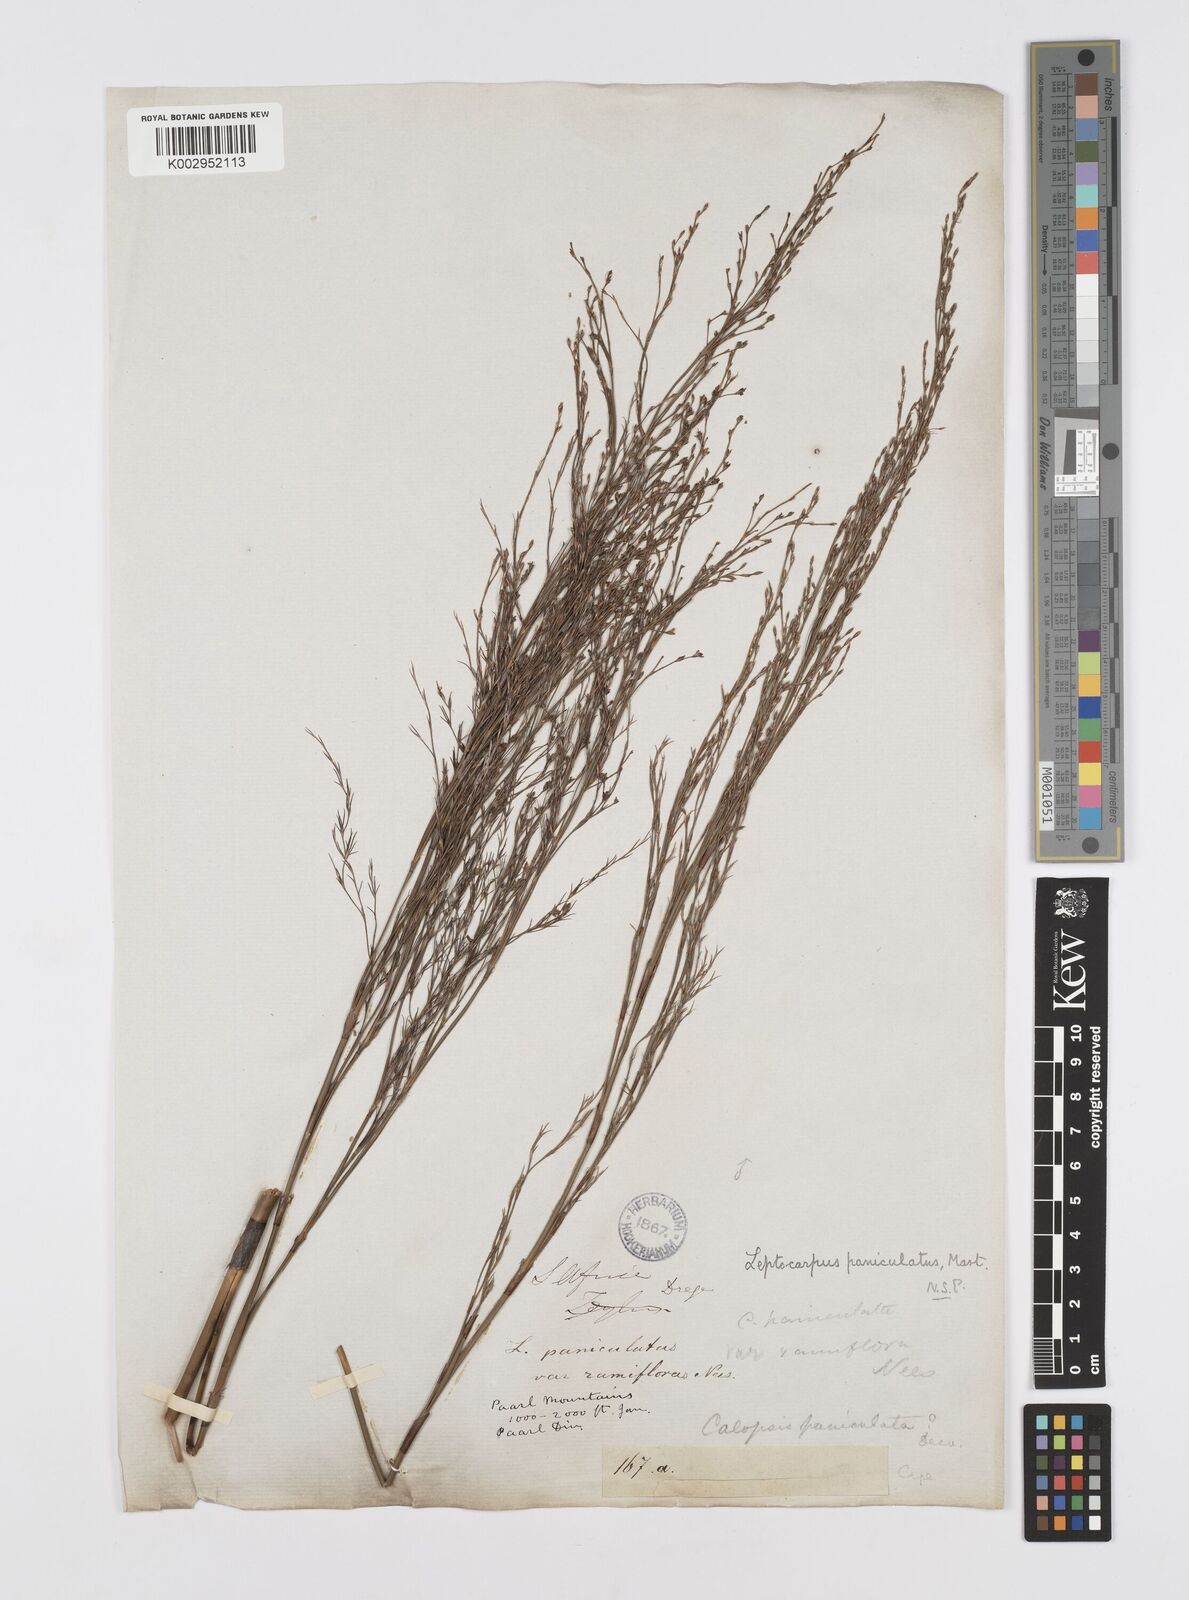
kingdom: Plantae
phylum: Tracheophyta
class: Liliopsida
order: Poales
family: Restionaceae
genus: Restio
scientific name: Restio paniculatus
